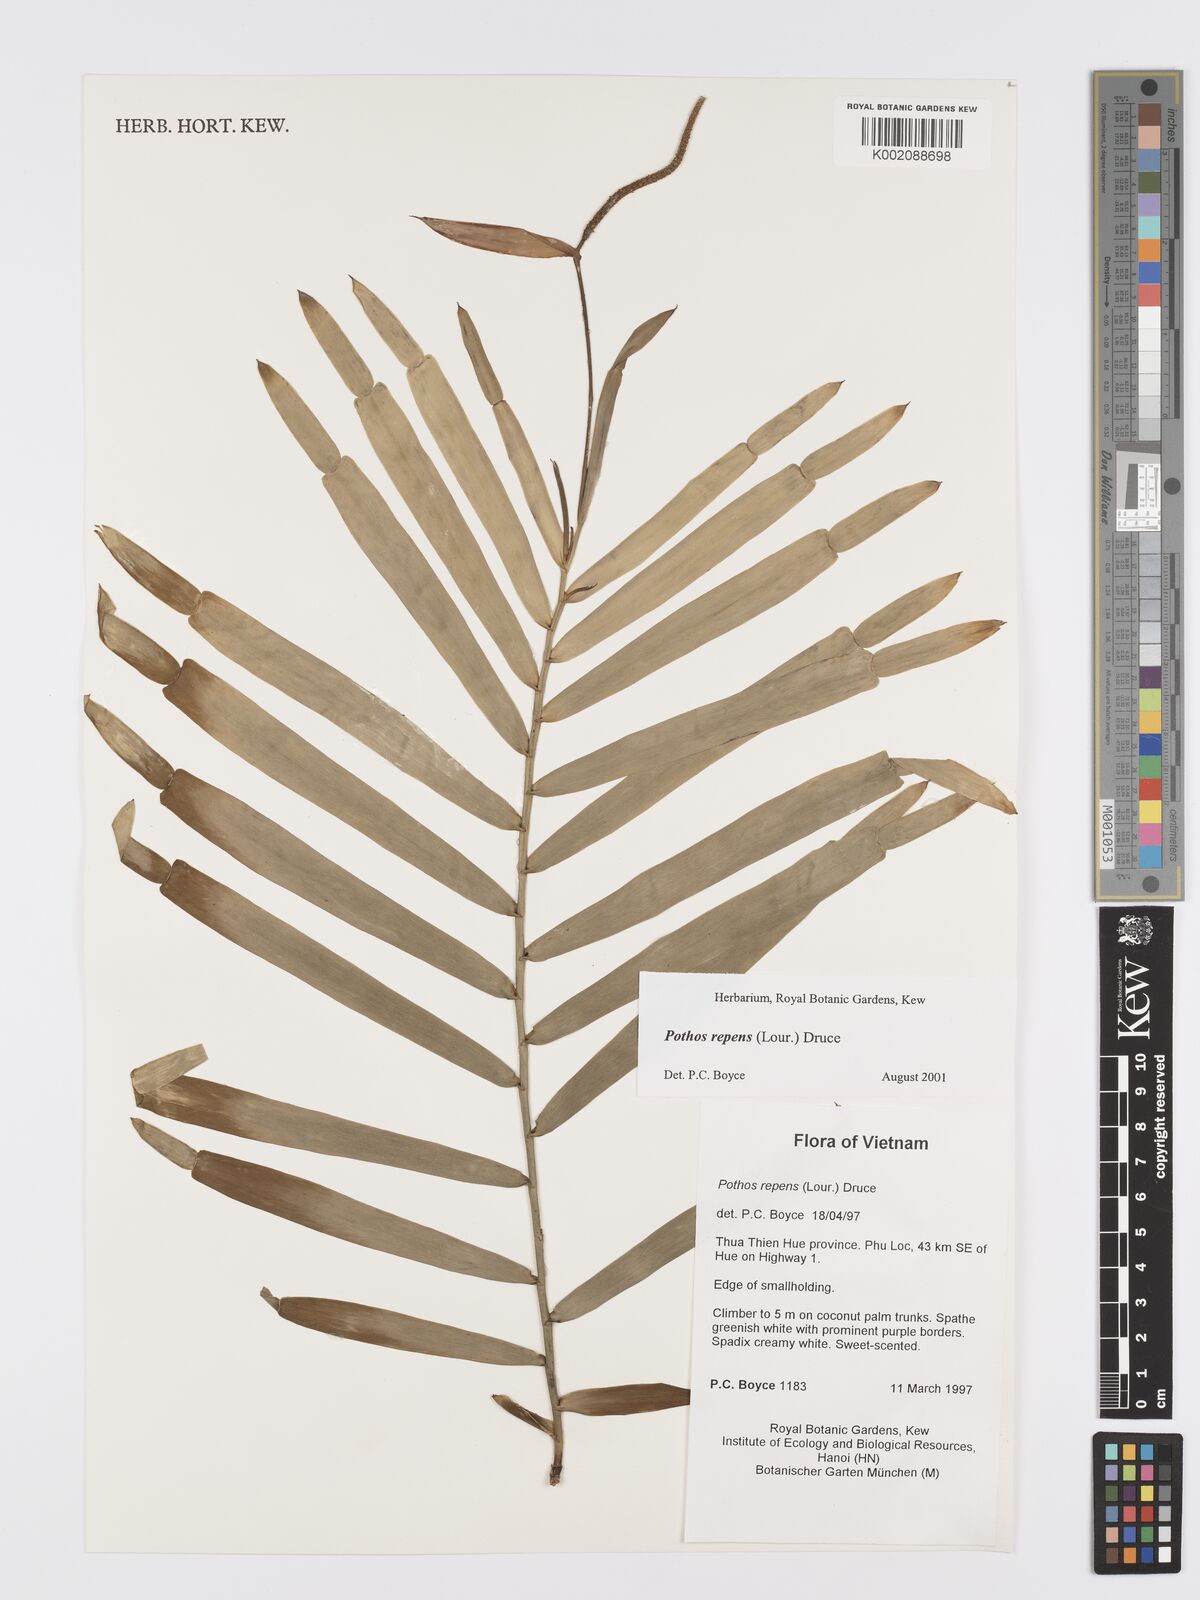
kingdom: Plantae
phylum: Tracheophyta
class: Liliopsida
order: Alismatales
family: Araceae
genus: Pothos
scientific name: Pothos repens
